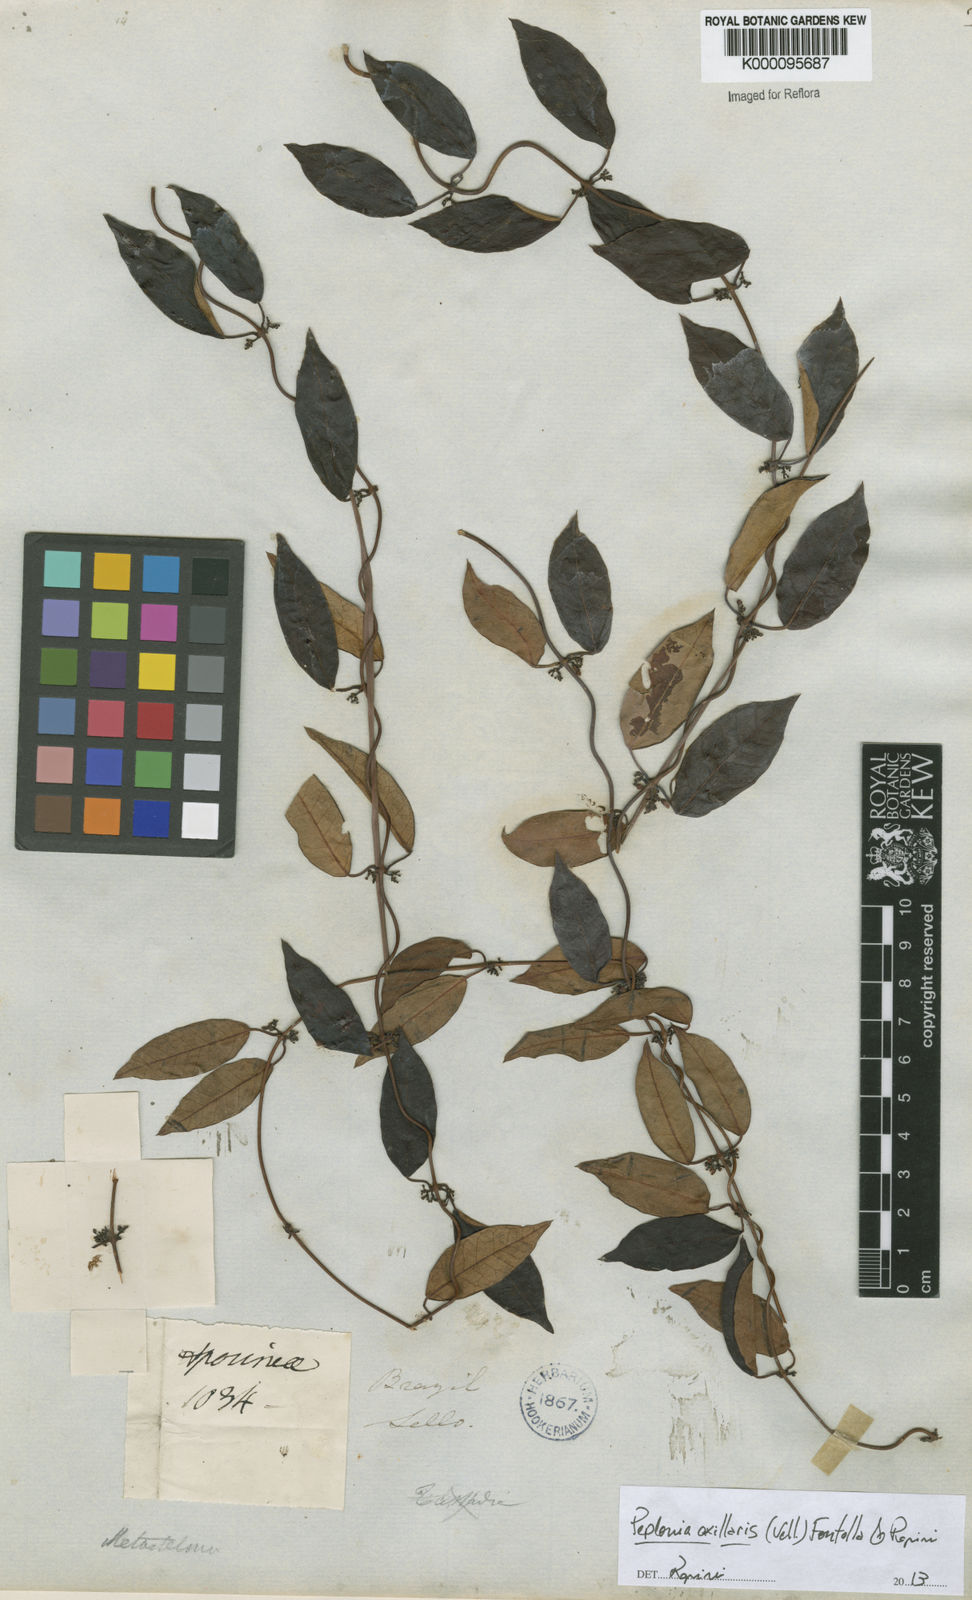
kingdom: Plantae
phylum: Tracheophyta
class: Magnoliopsida
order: Gentianales
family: Apocynaceae
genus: Peplonia
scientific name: Peplonia axillaris
